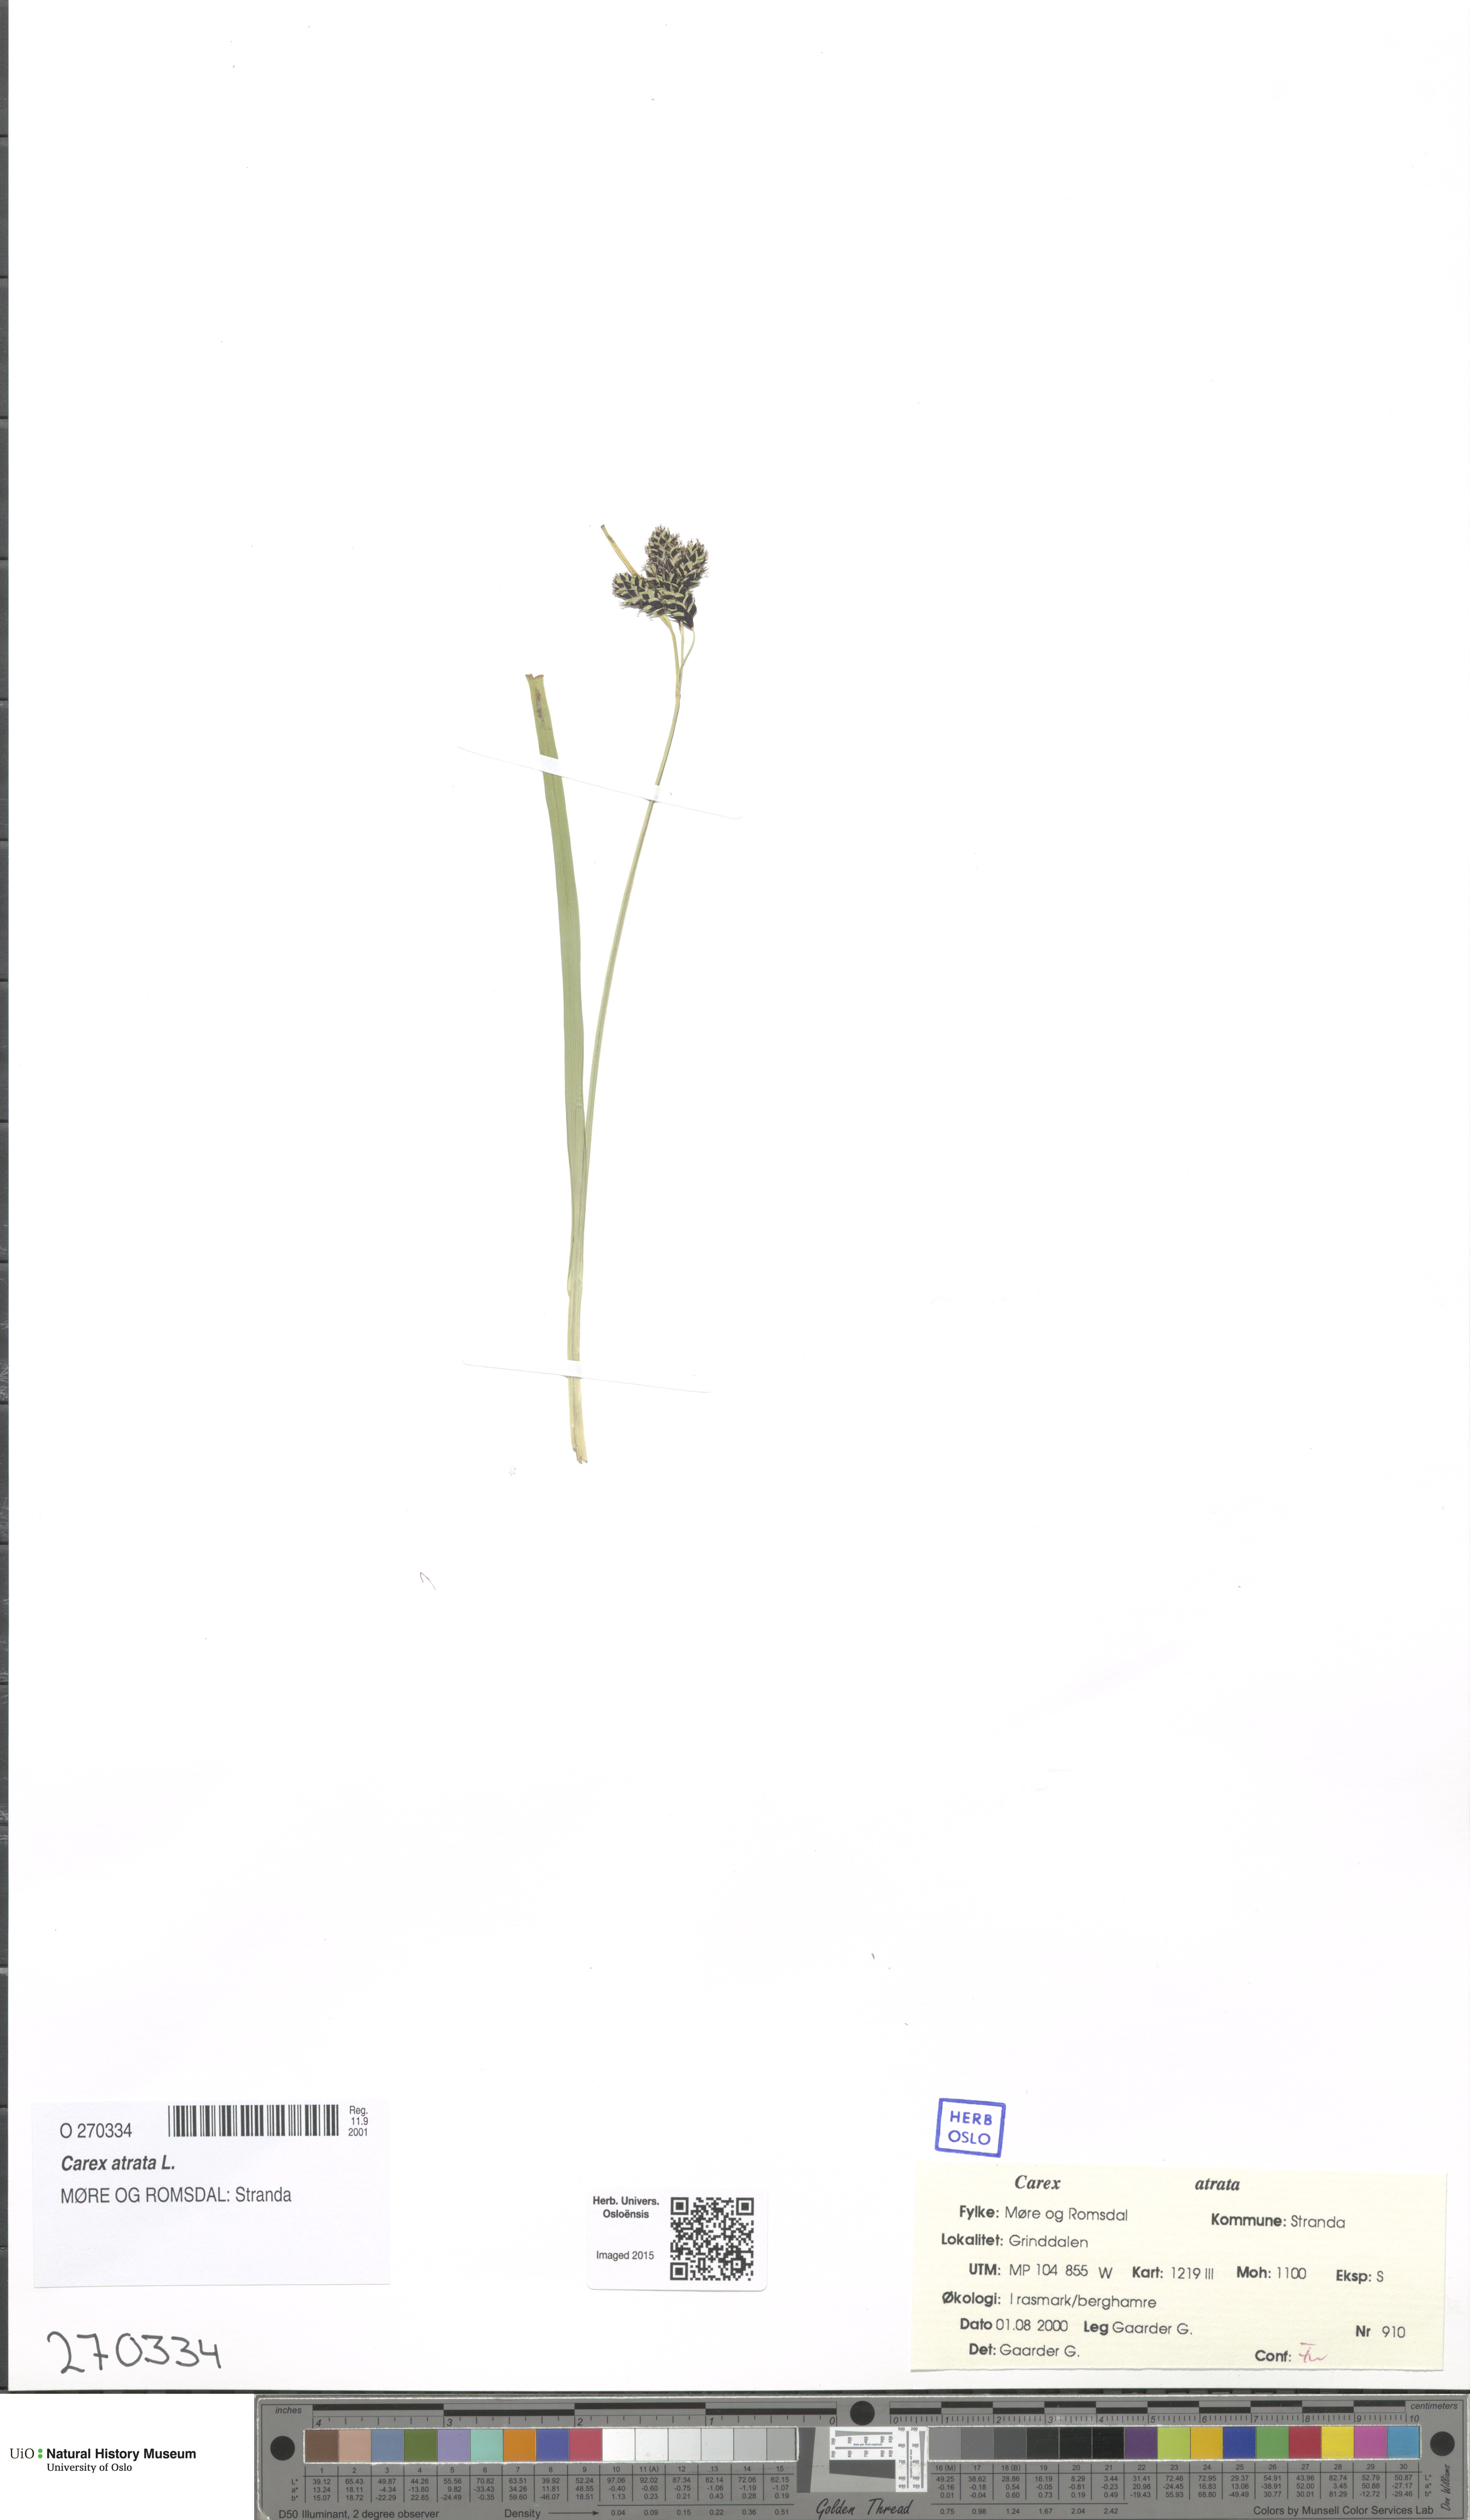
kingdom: Plantae
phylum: Tracheophyta
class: Liliopsida
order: Poales
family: Cyperaceae
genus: Carex
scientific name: Carex atrata
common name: Black alpine sedge
